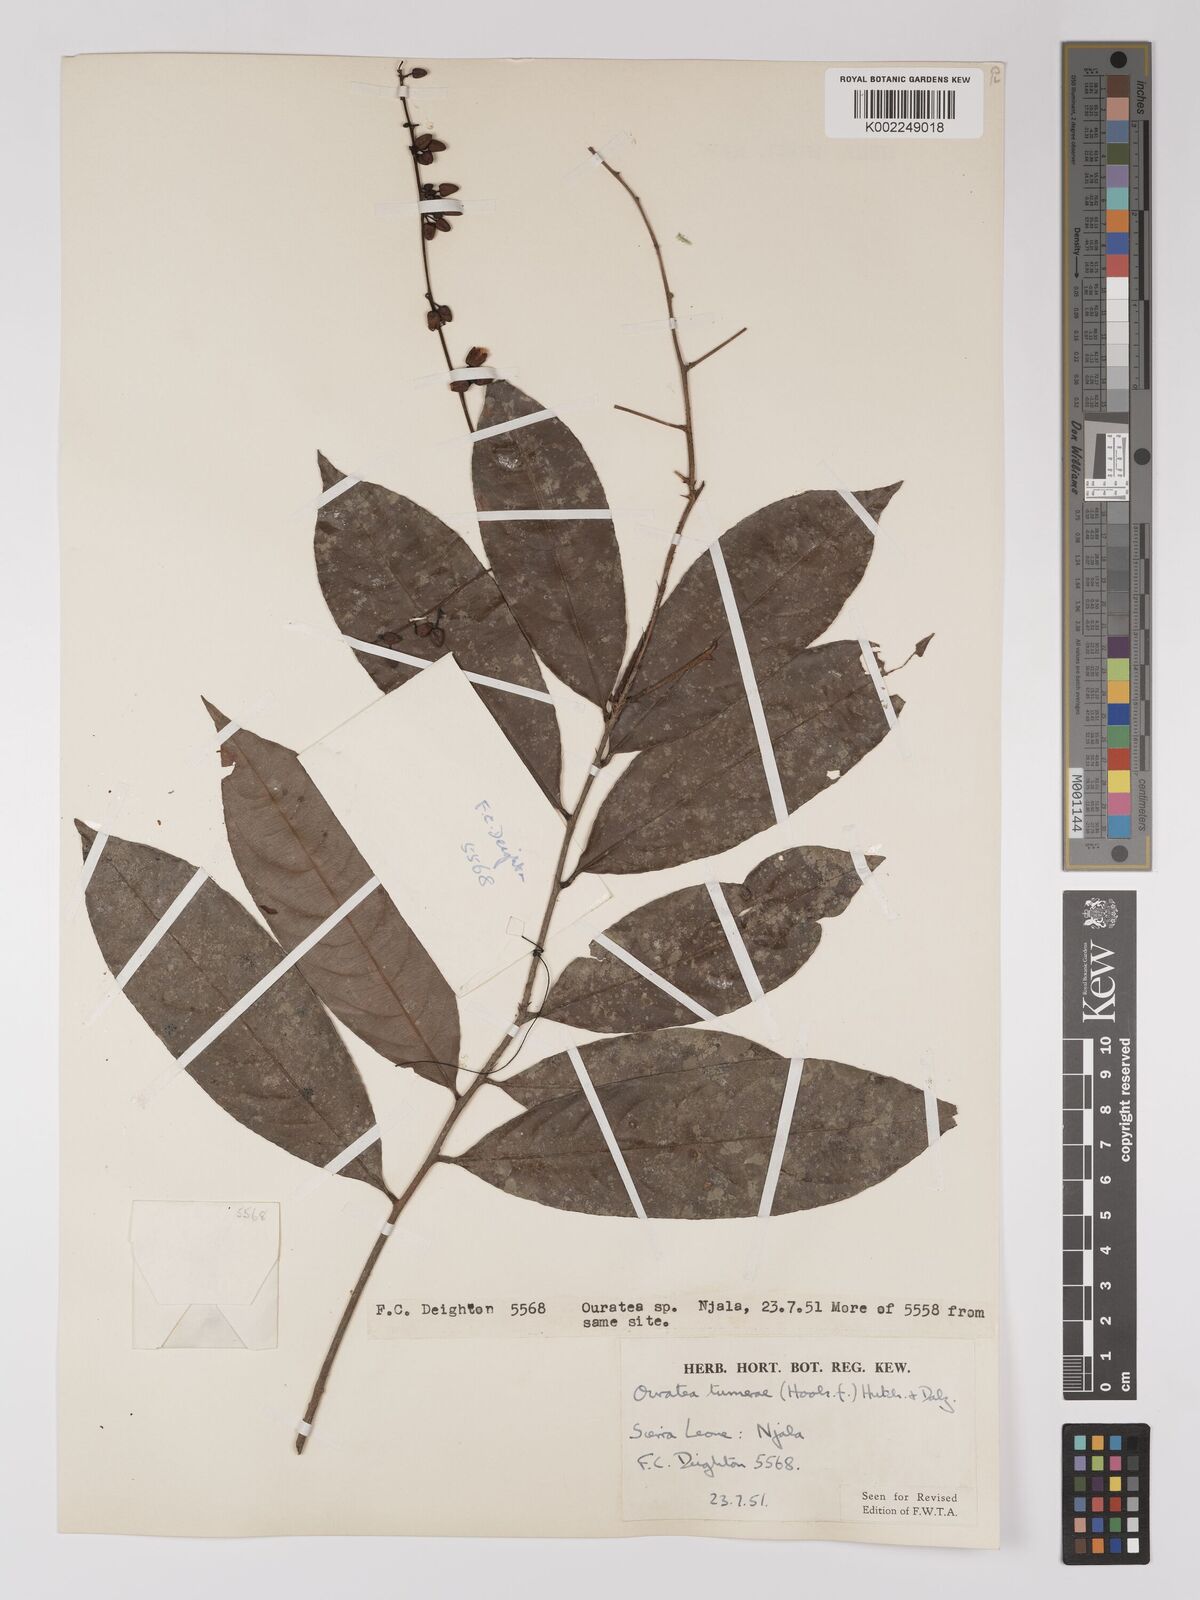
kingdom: Plantae
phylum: Tracheophyta
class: Magnoliopsida
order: Malpighiales
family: Ochnaceae
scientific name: Ochnaceae
